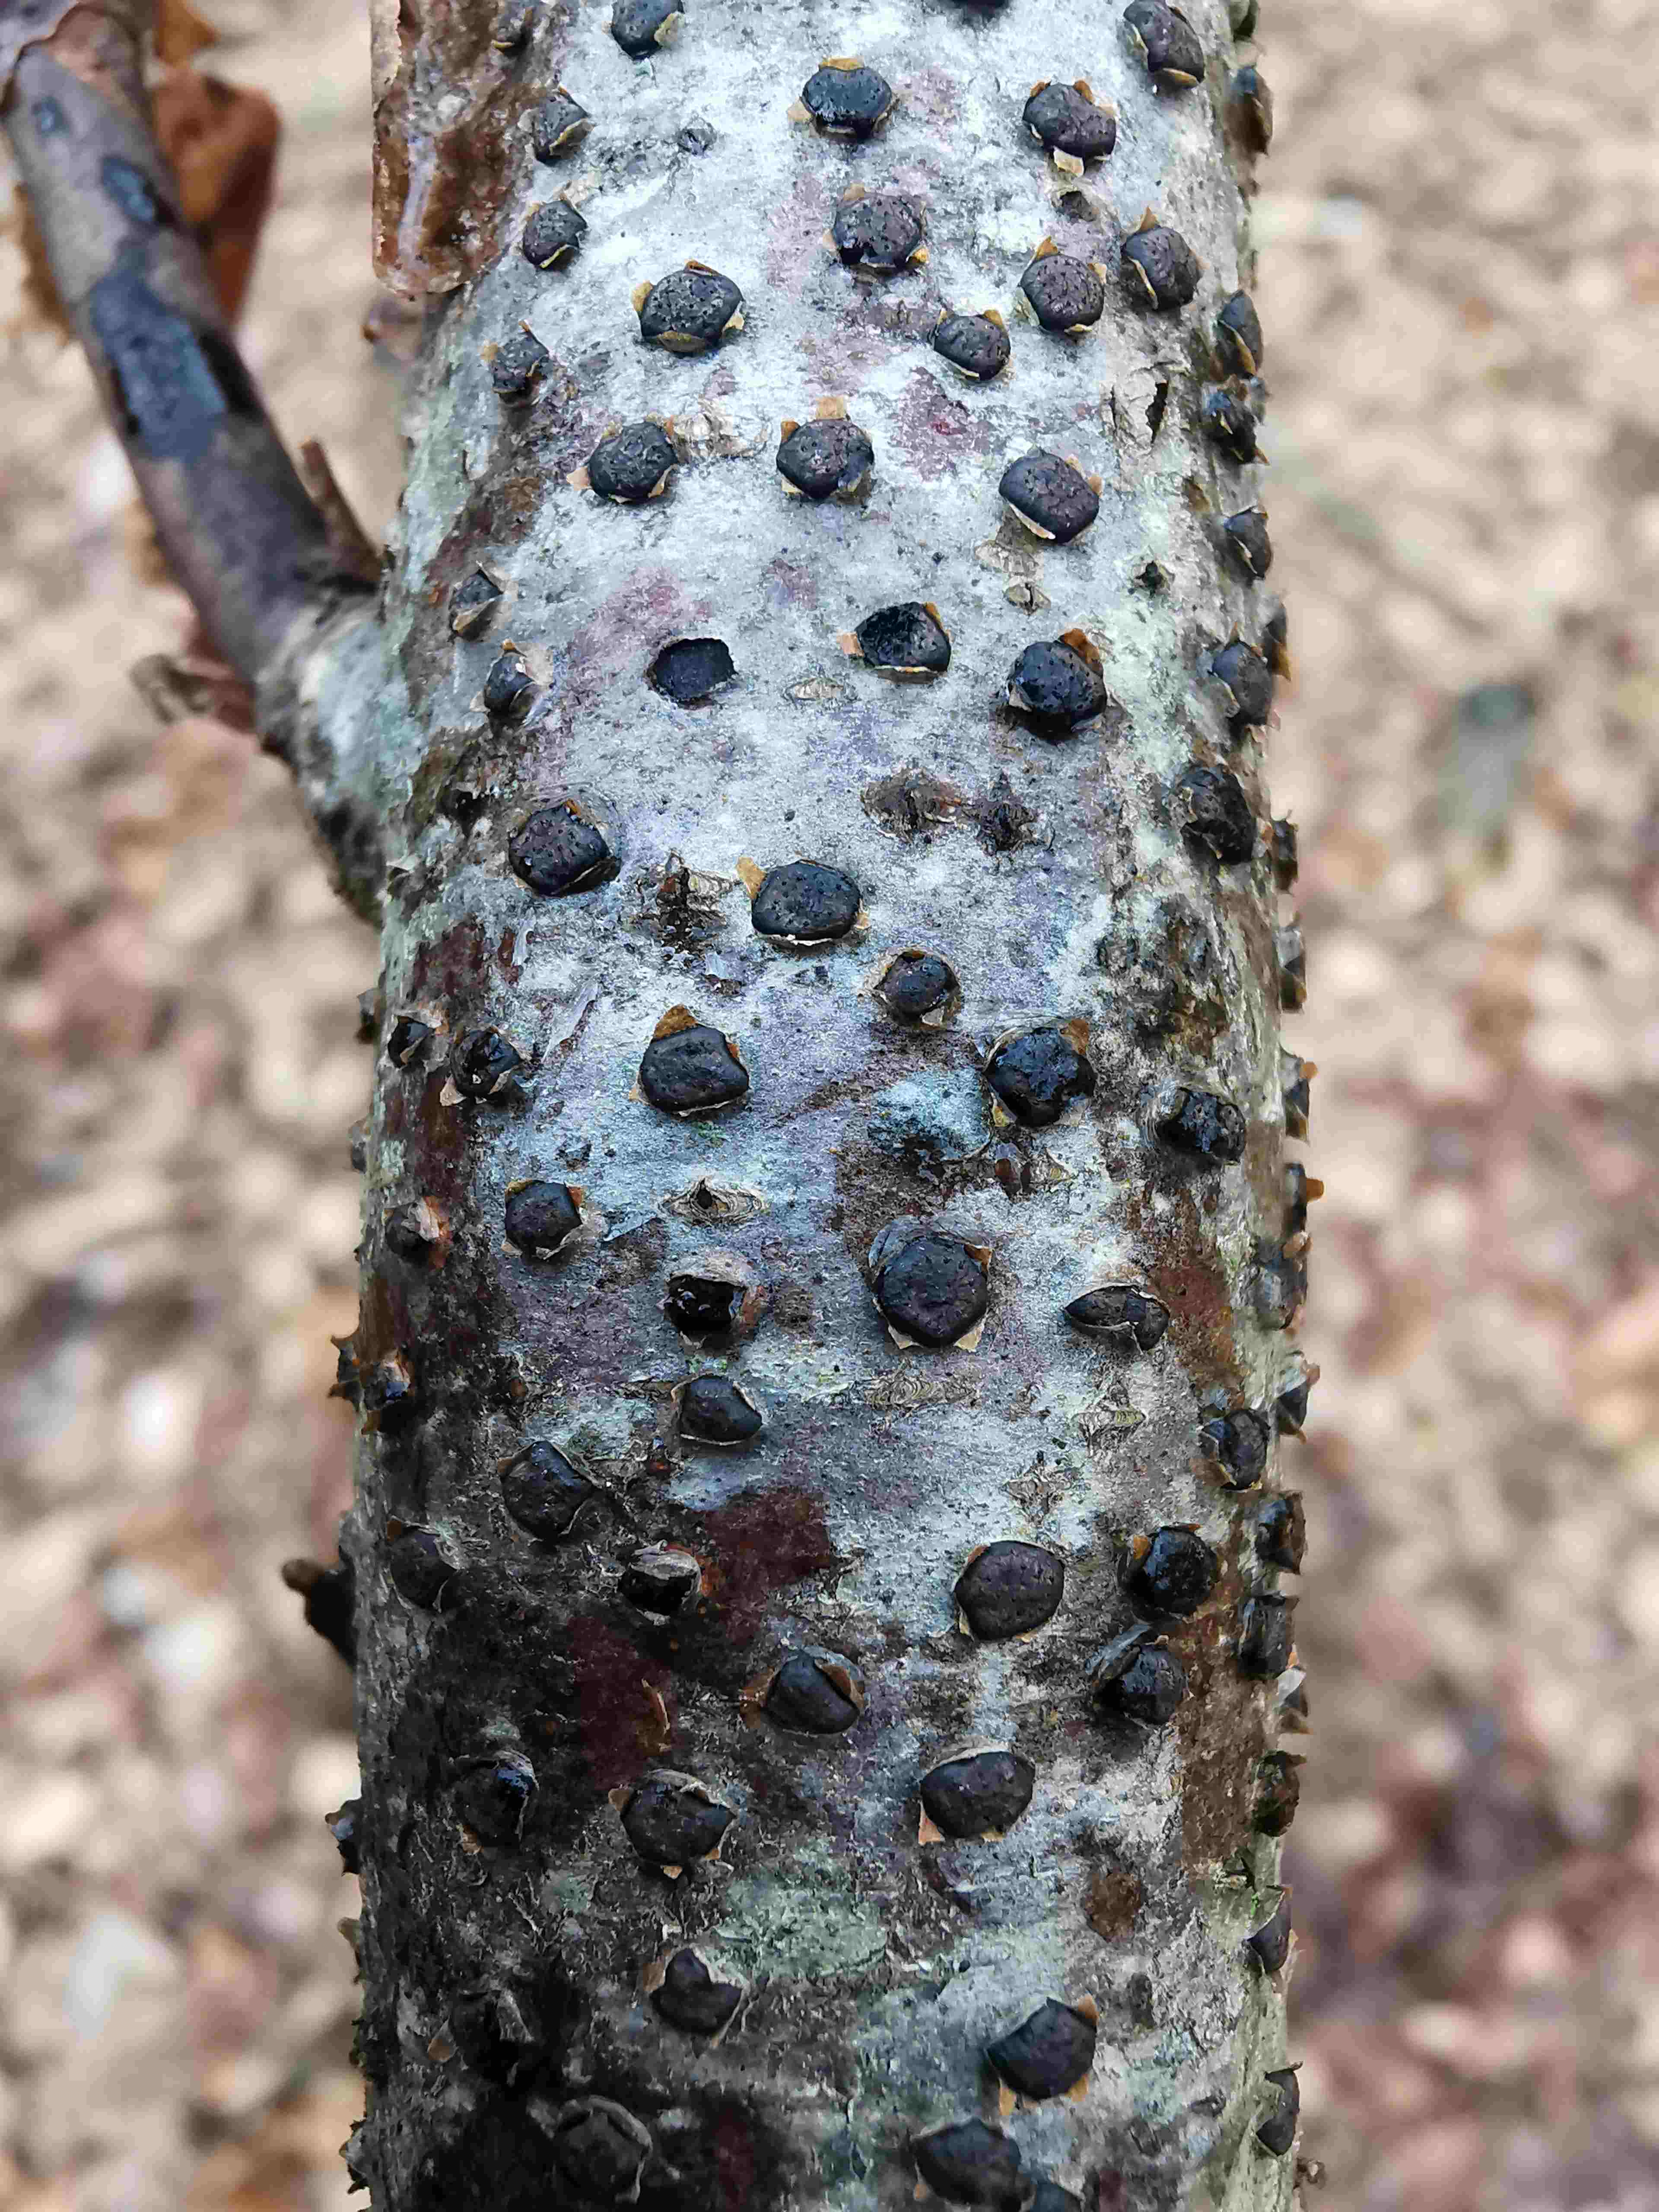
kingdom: Fungi
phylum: Ascomycota
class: Sordariomycetes
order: Xylariales
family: Diatrypaceae
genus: Diatrype
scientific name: Diatrype disciformis
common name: kant-kulskorpe
